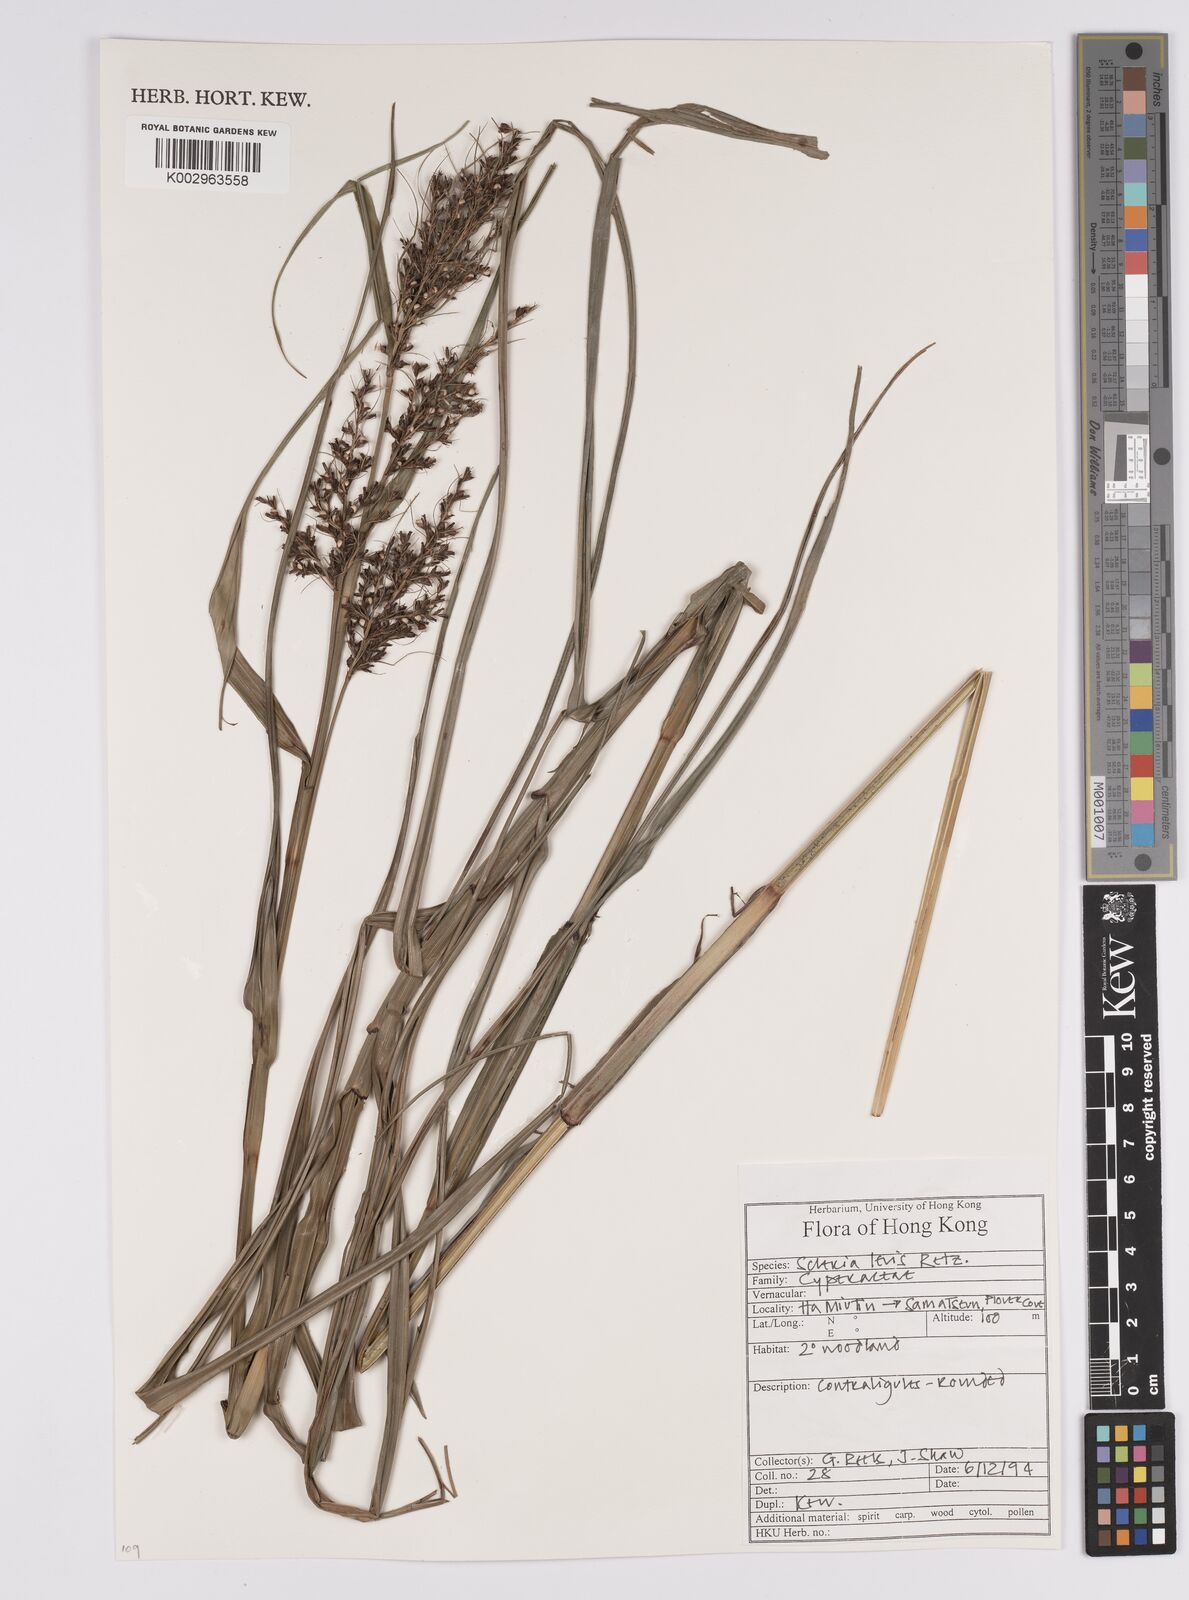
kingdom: Plantae
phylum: Tracheophyta
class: Liliopsida
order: Poales
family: Cyperaceae
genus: Scleria
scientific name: Scleria levis
